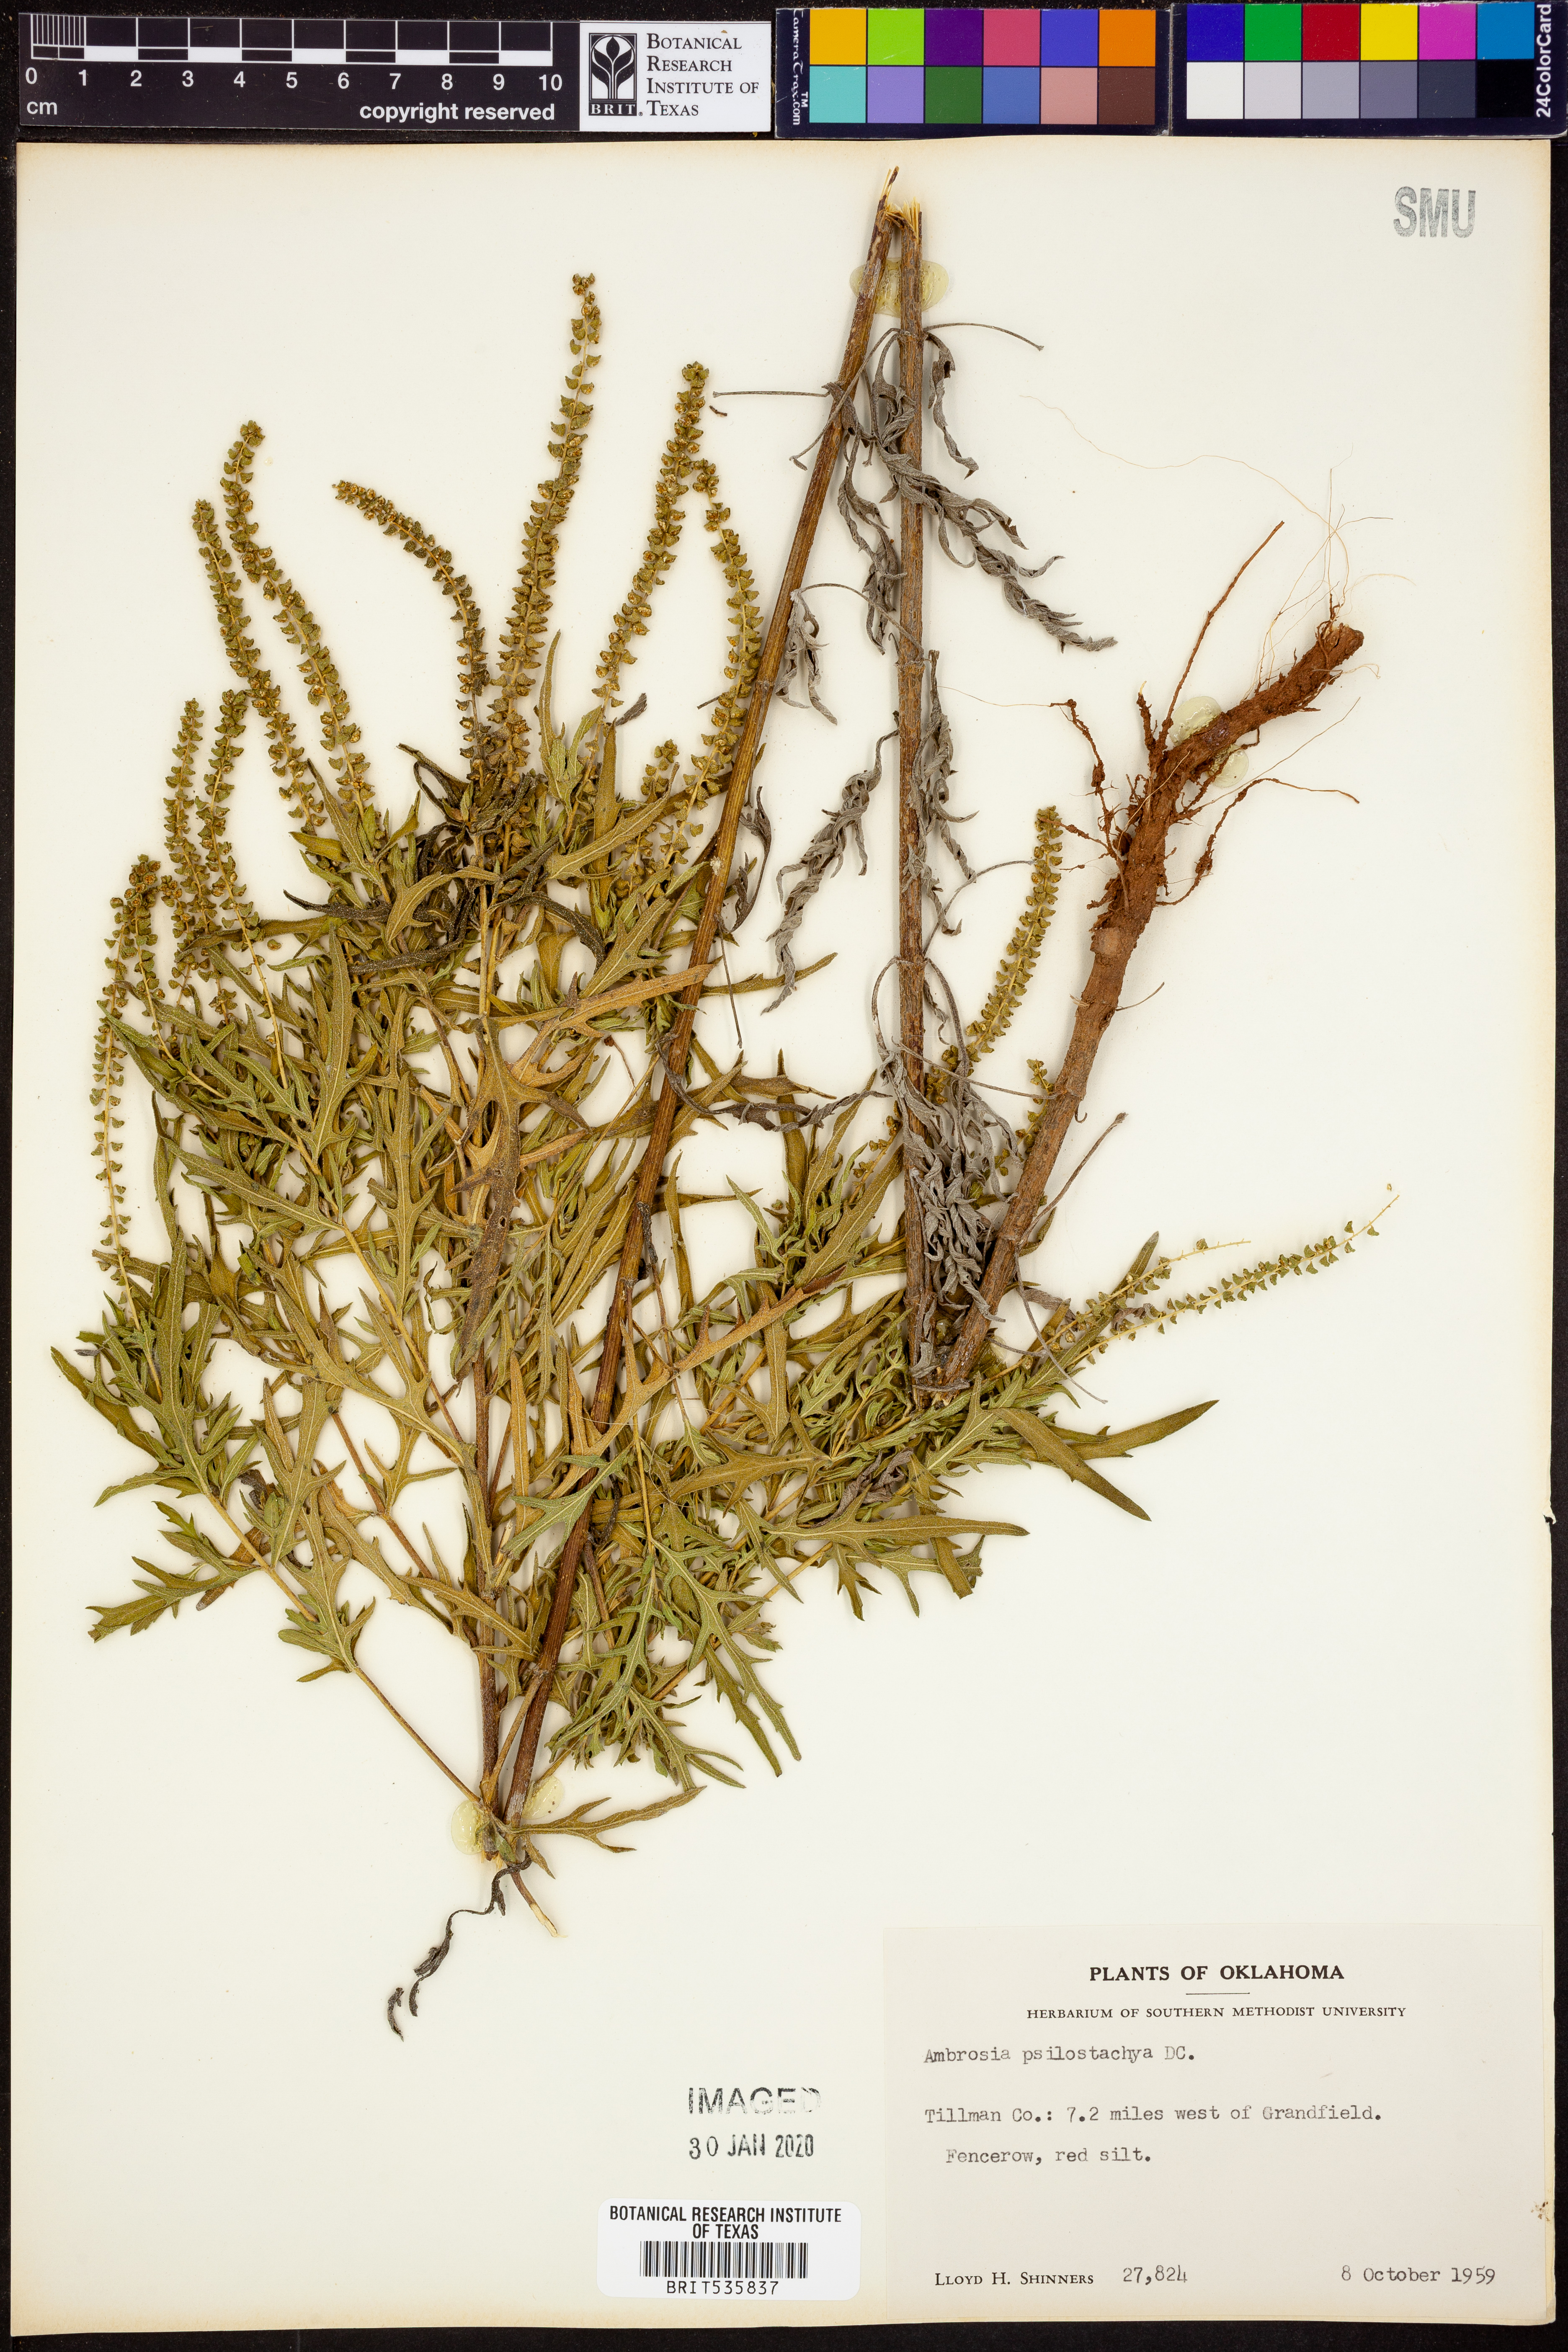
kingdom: Plantae
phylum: Tracheophyta
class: Magnoliopsida
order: Asterales
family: Asteraceae
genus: Ambrosia
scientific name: Ambrosia psilostachya
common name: Perennial ragweed
